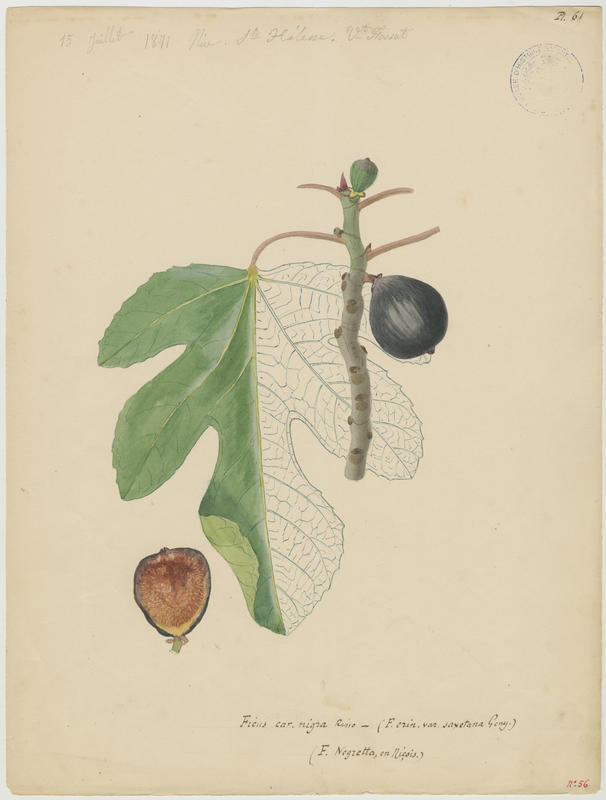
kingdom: Plantae
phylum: Tracheophyta
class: Magnoliopsida
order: Rosales
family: Moraceae
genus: Ficus
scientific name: Ficus carica
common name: Fig
